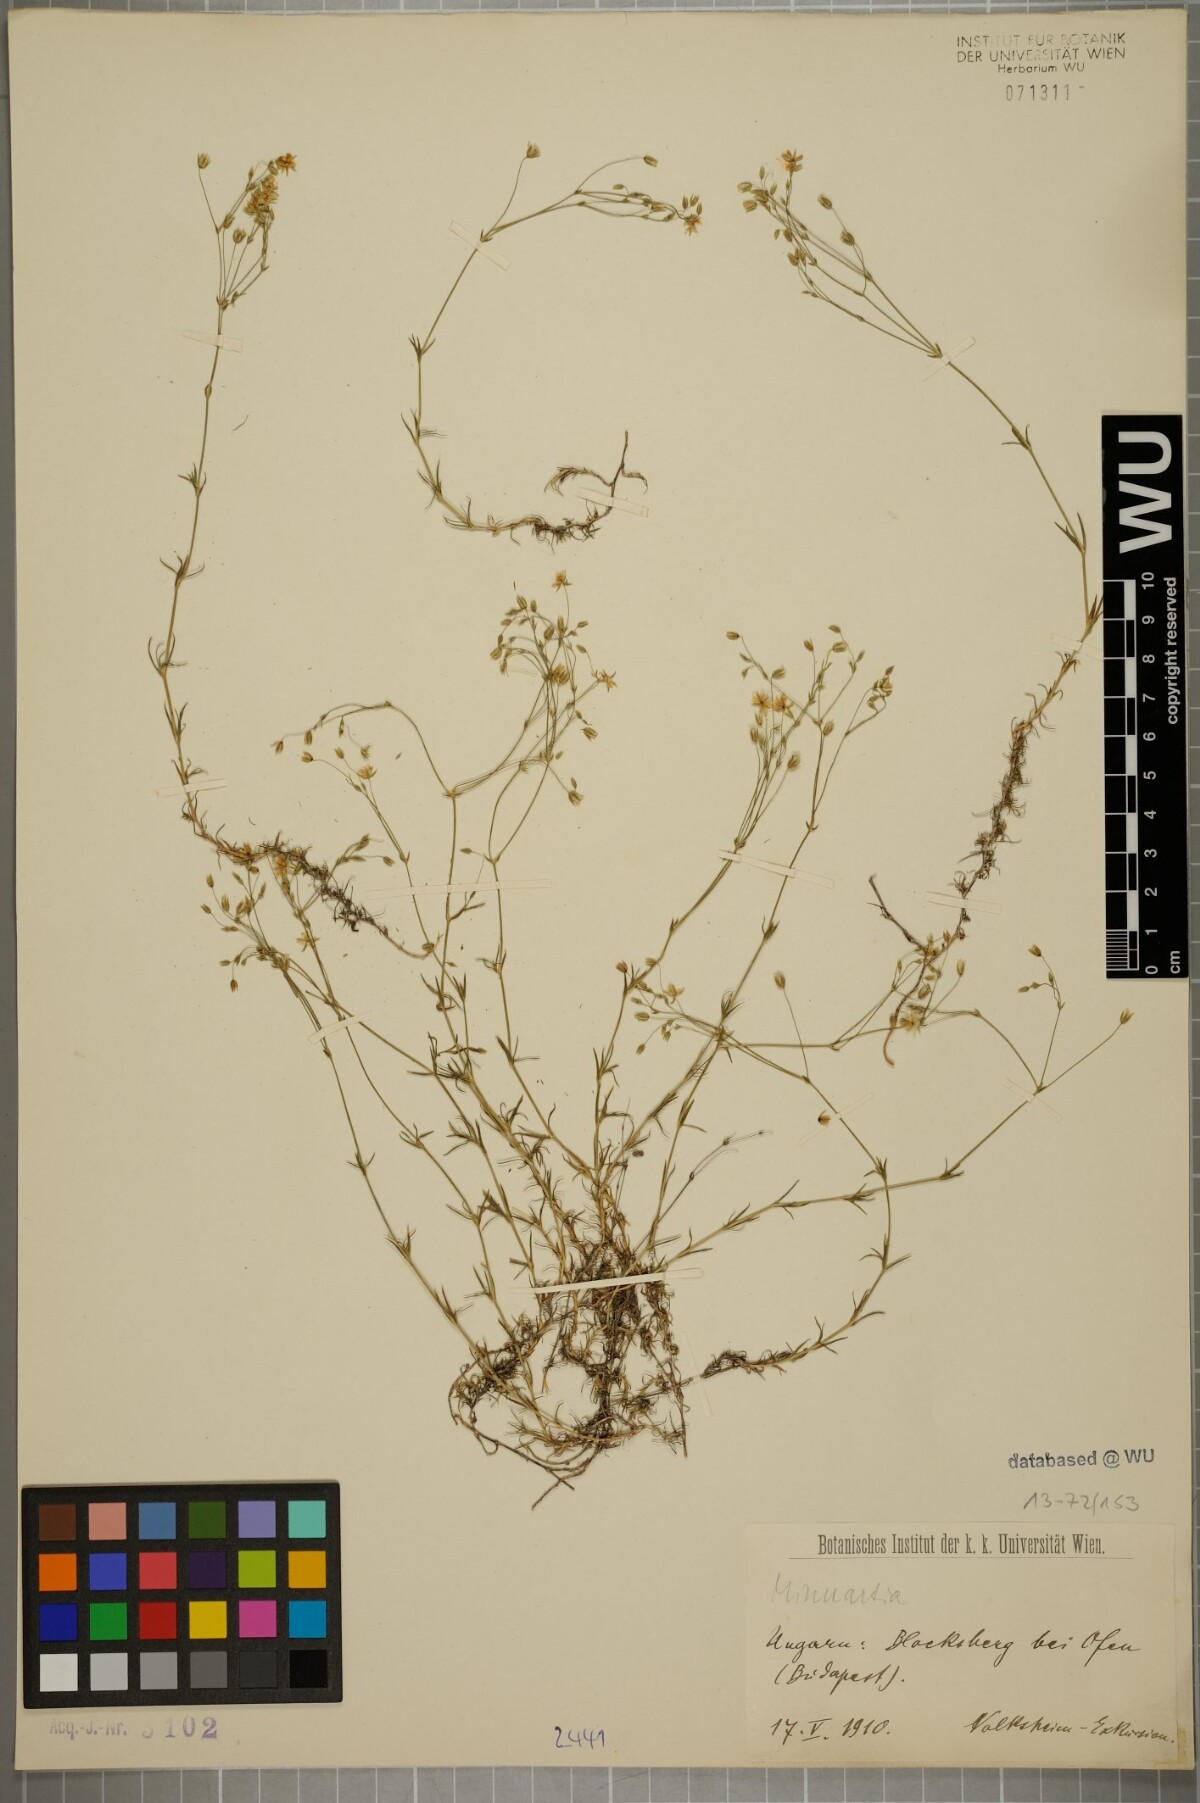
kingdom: Plantae
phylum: Tracheophyta
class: Magnoliopsida
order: Caryophyllales
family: Caryophyllaceae
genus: Sabulina
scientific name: Sabulina mesogitana
